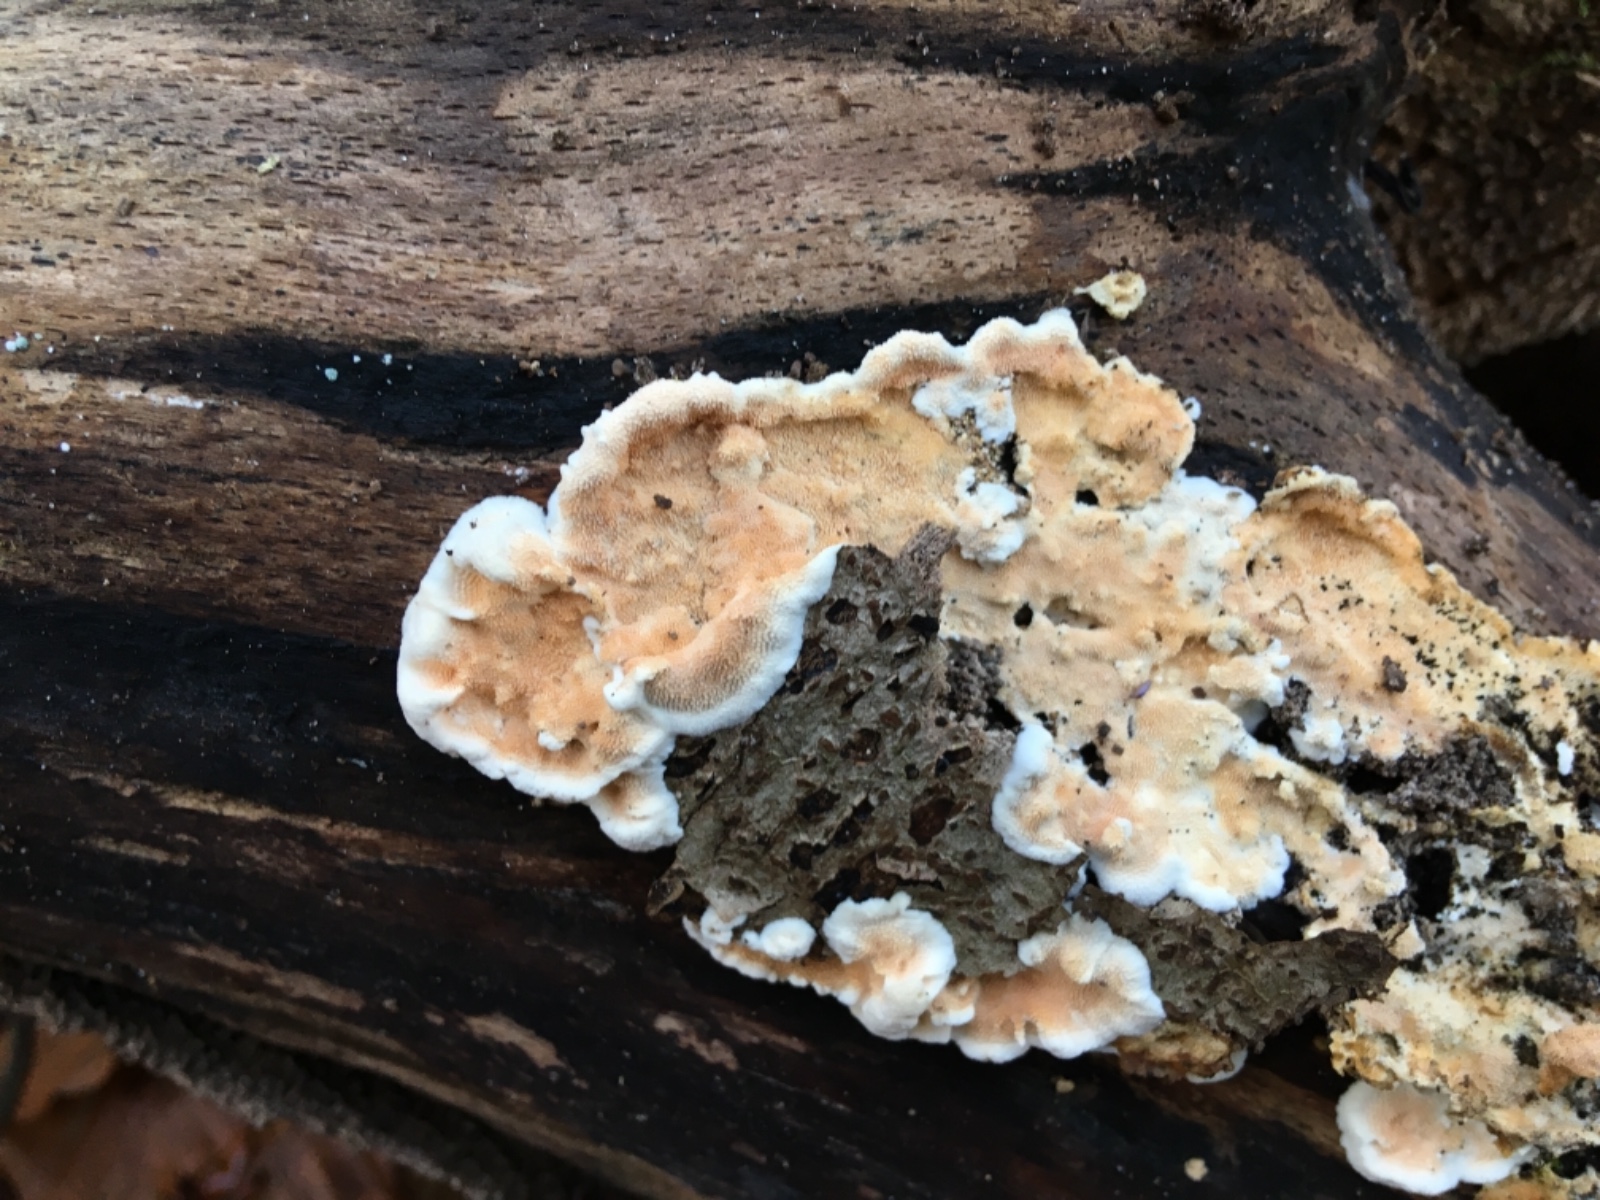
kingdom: Fungi
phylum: Basidiomycota
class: Agaricomycetes
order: Polyporales
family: Steccherinaceae
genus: Steccherinum
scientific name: Steccherinum ochraceum
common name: almindelig skønpig
